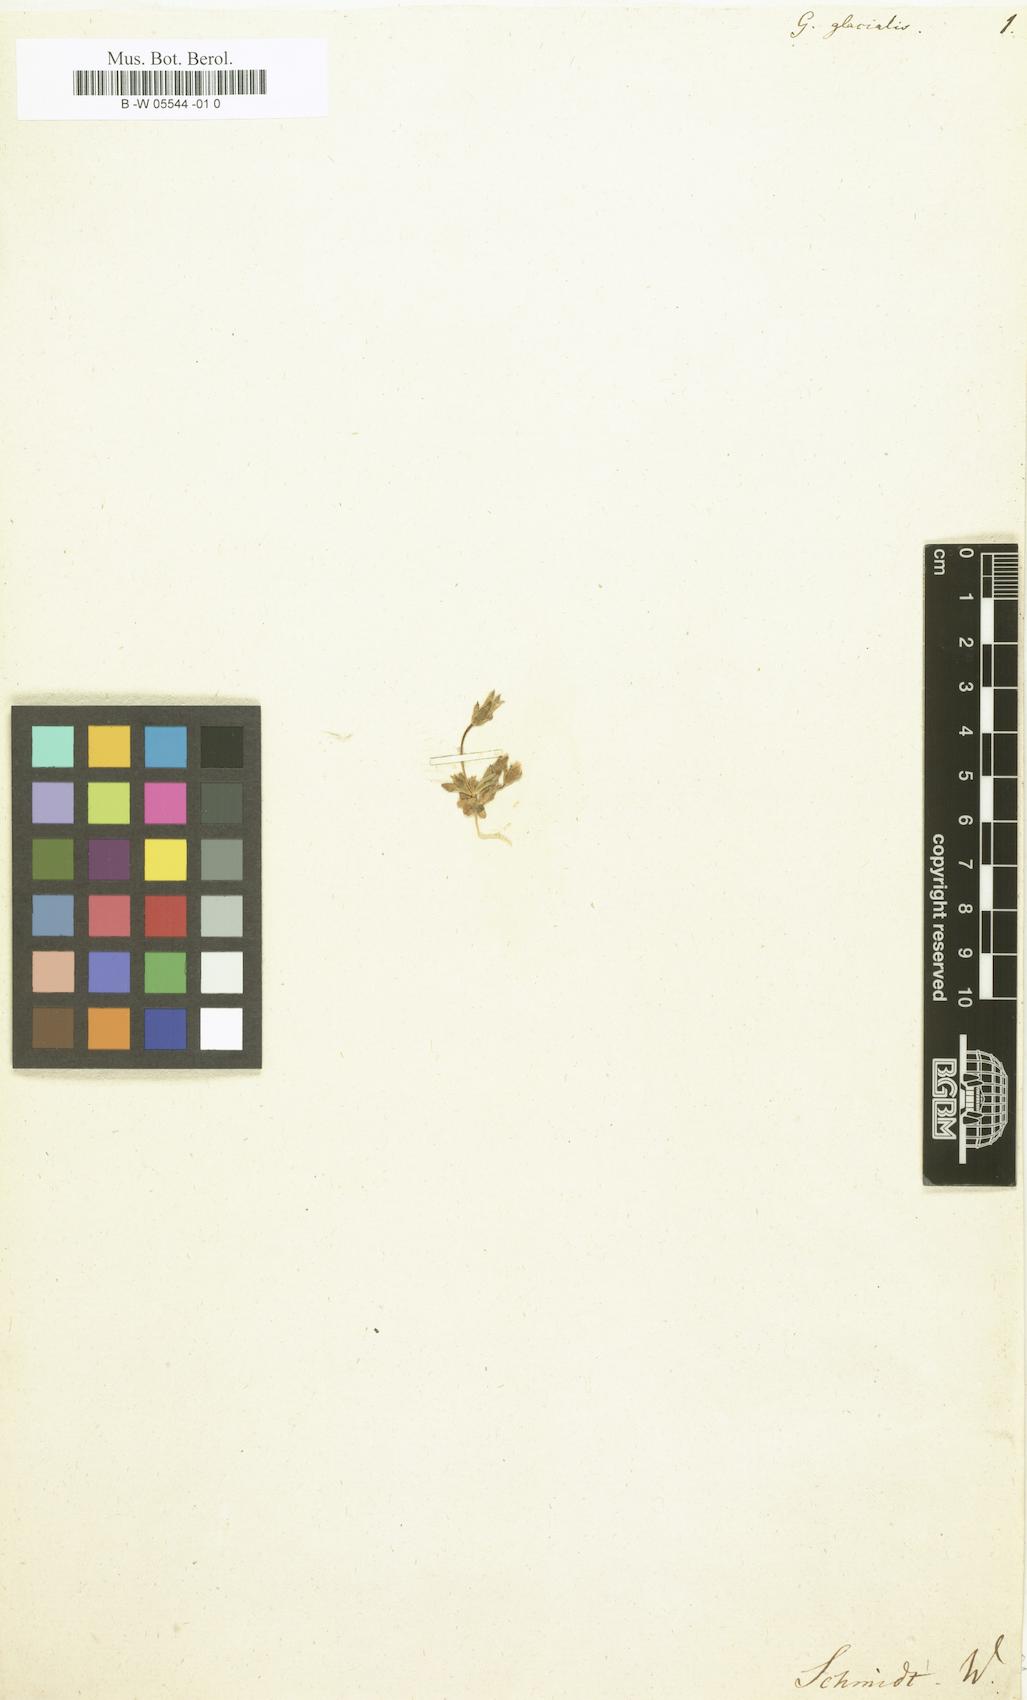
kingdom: Plantae
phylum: Tracheophyta
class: Magnoliopsida
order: Gentianales
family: Gentianaceae
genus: Comastoma
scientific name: Comastoma tenellum
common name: Dane's dwarf gentian
